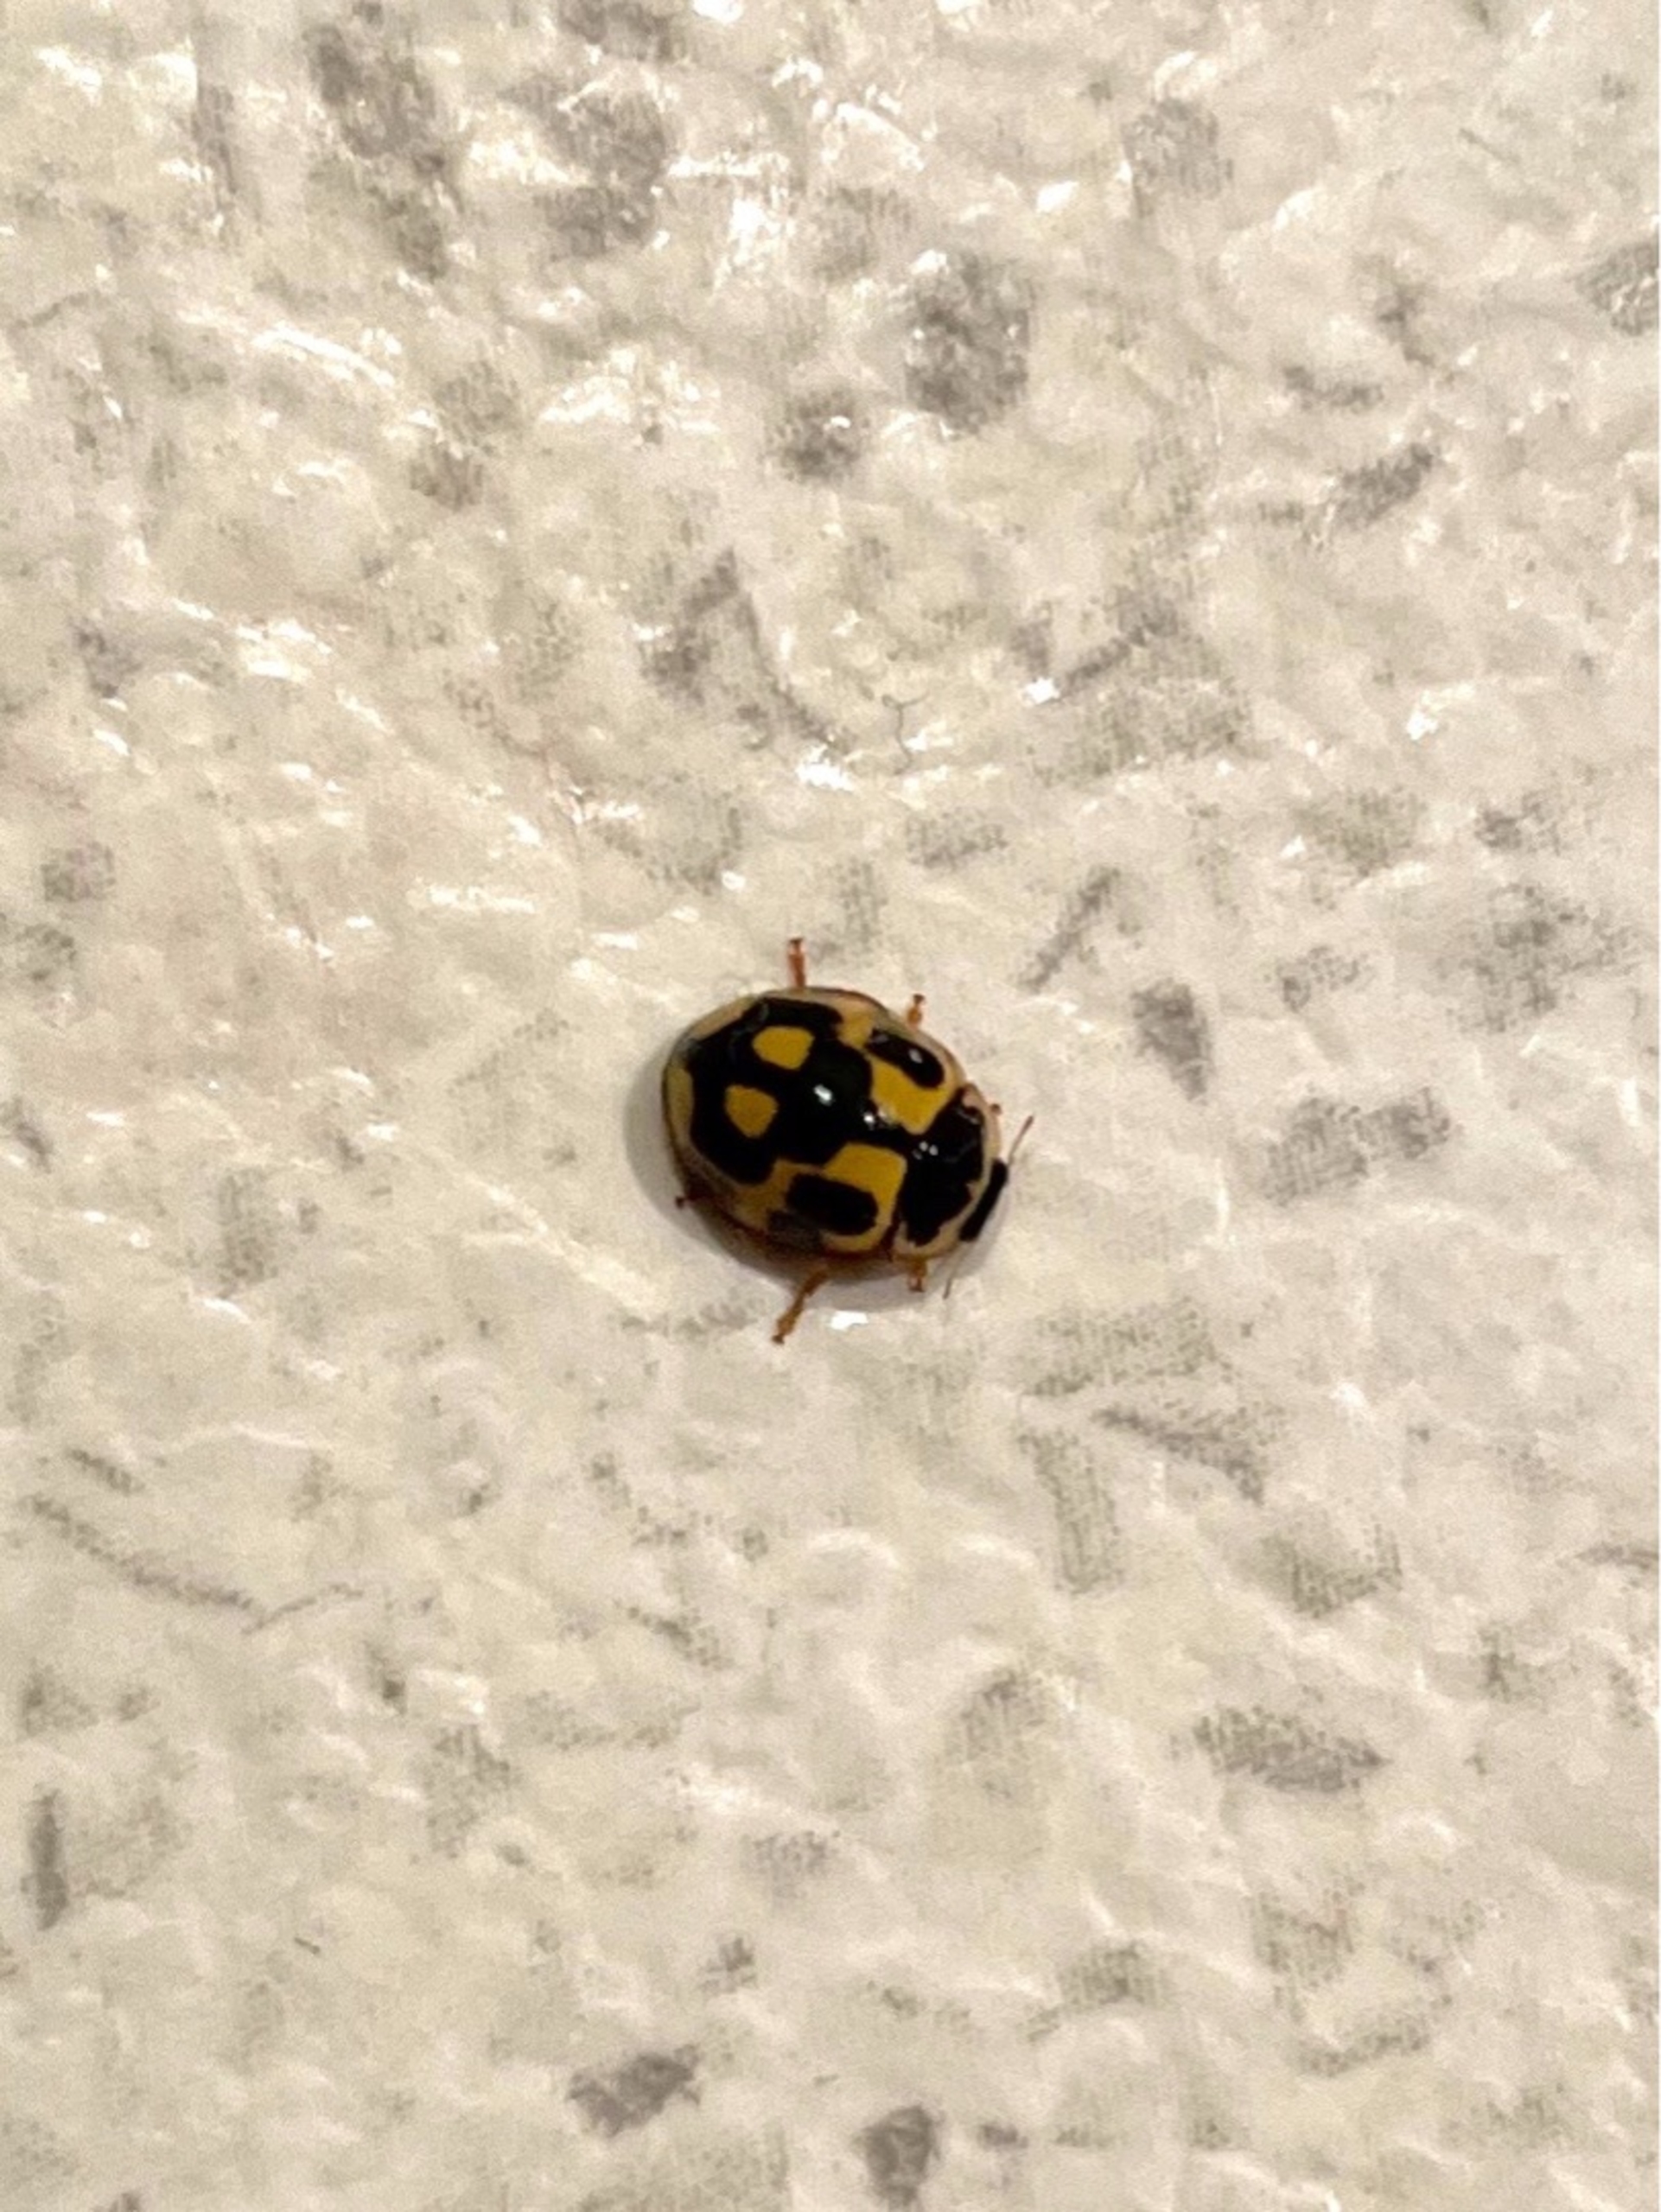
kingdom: Animalia
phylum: Arthropoda
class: Insecta
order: Coleoptera
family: Coccinellidae
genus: Propylaea
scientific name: Propylaea quatuordecimpunctata
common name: Skakbræt
